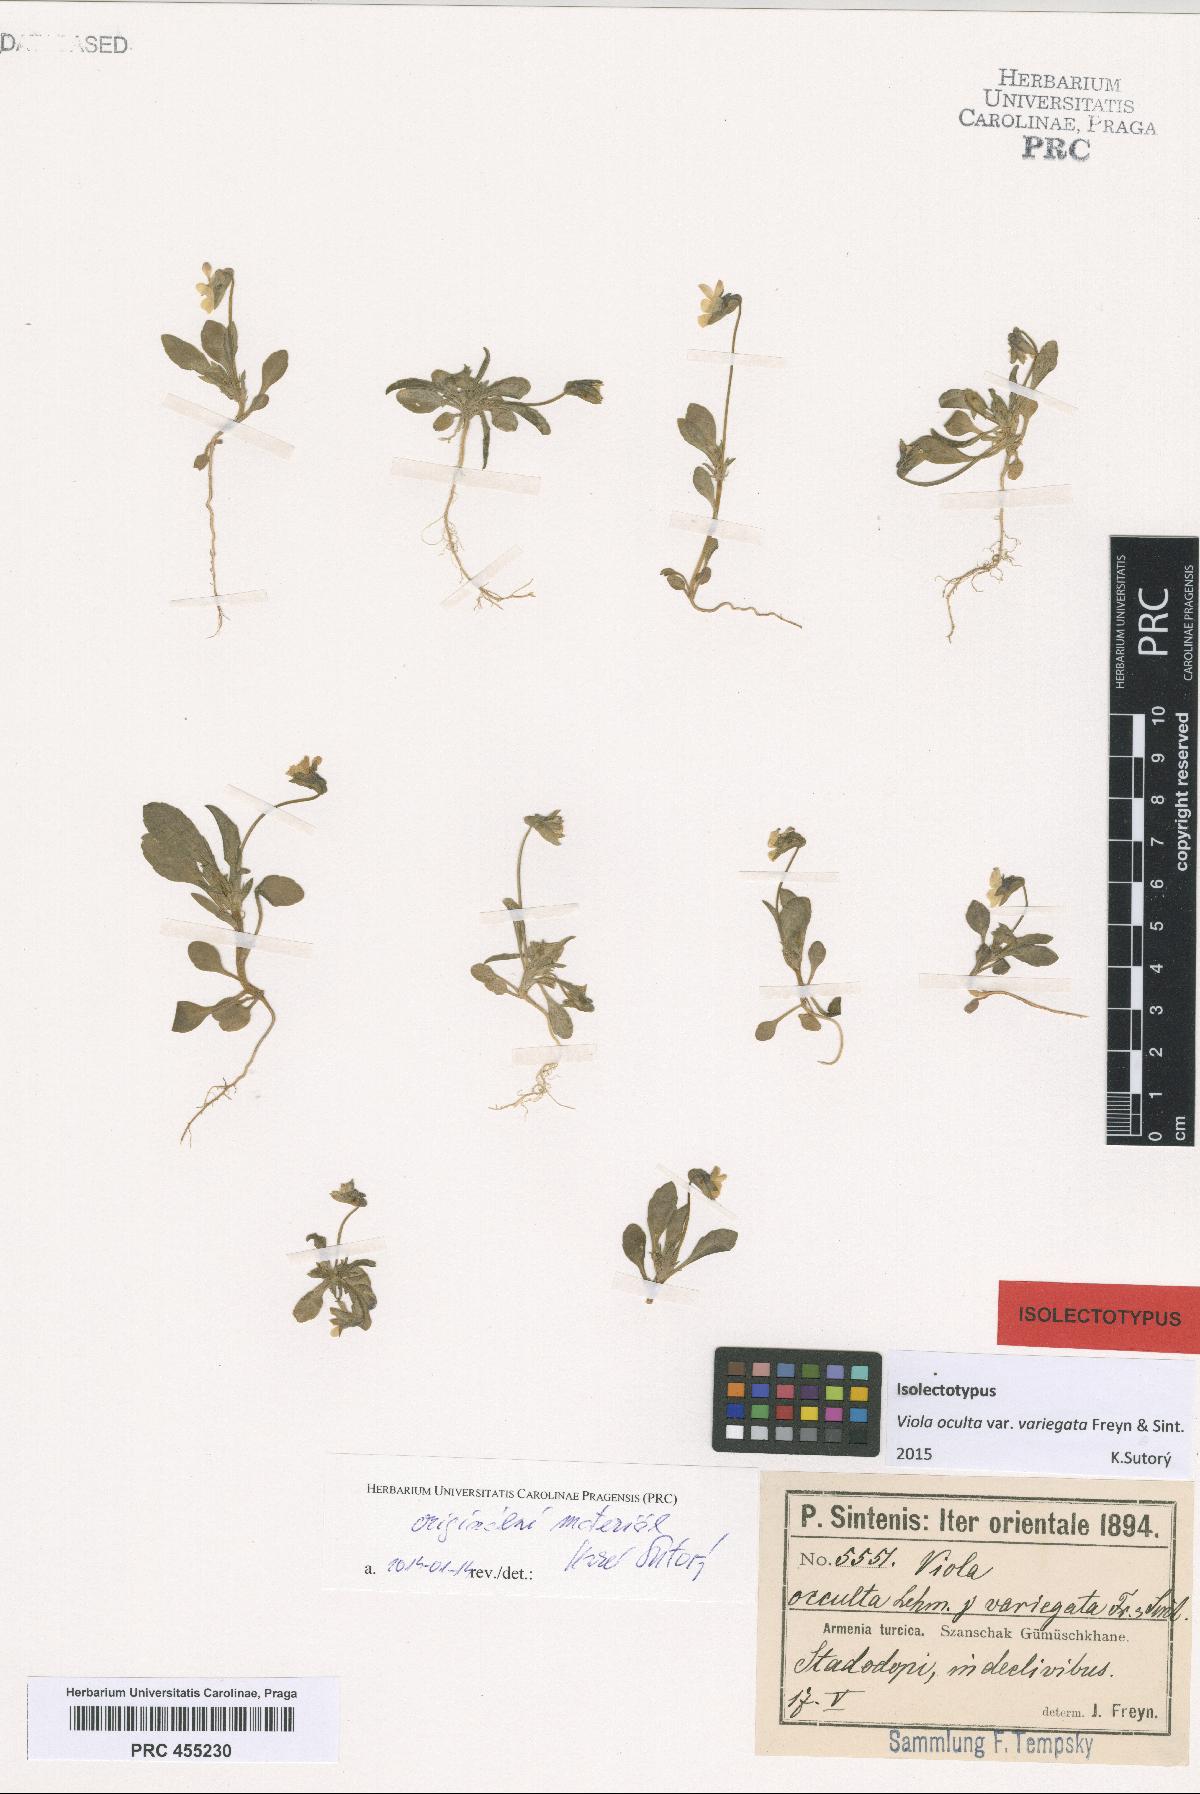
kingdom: Plantae
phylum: Tracheophyta
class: Magnoliopsida
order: Malpighiales
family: Violaceae
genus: Viola
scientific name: Viola occulta
